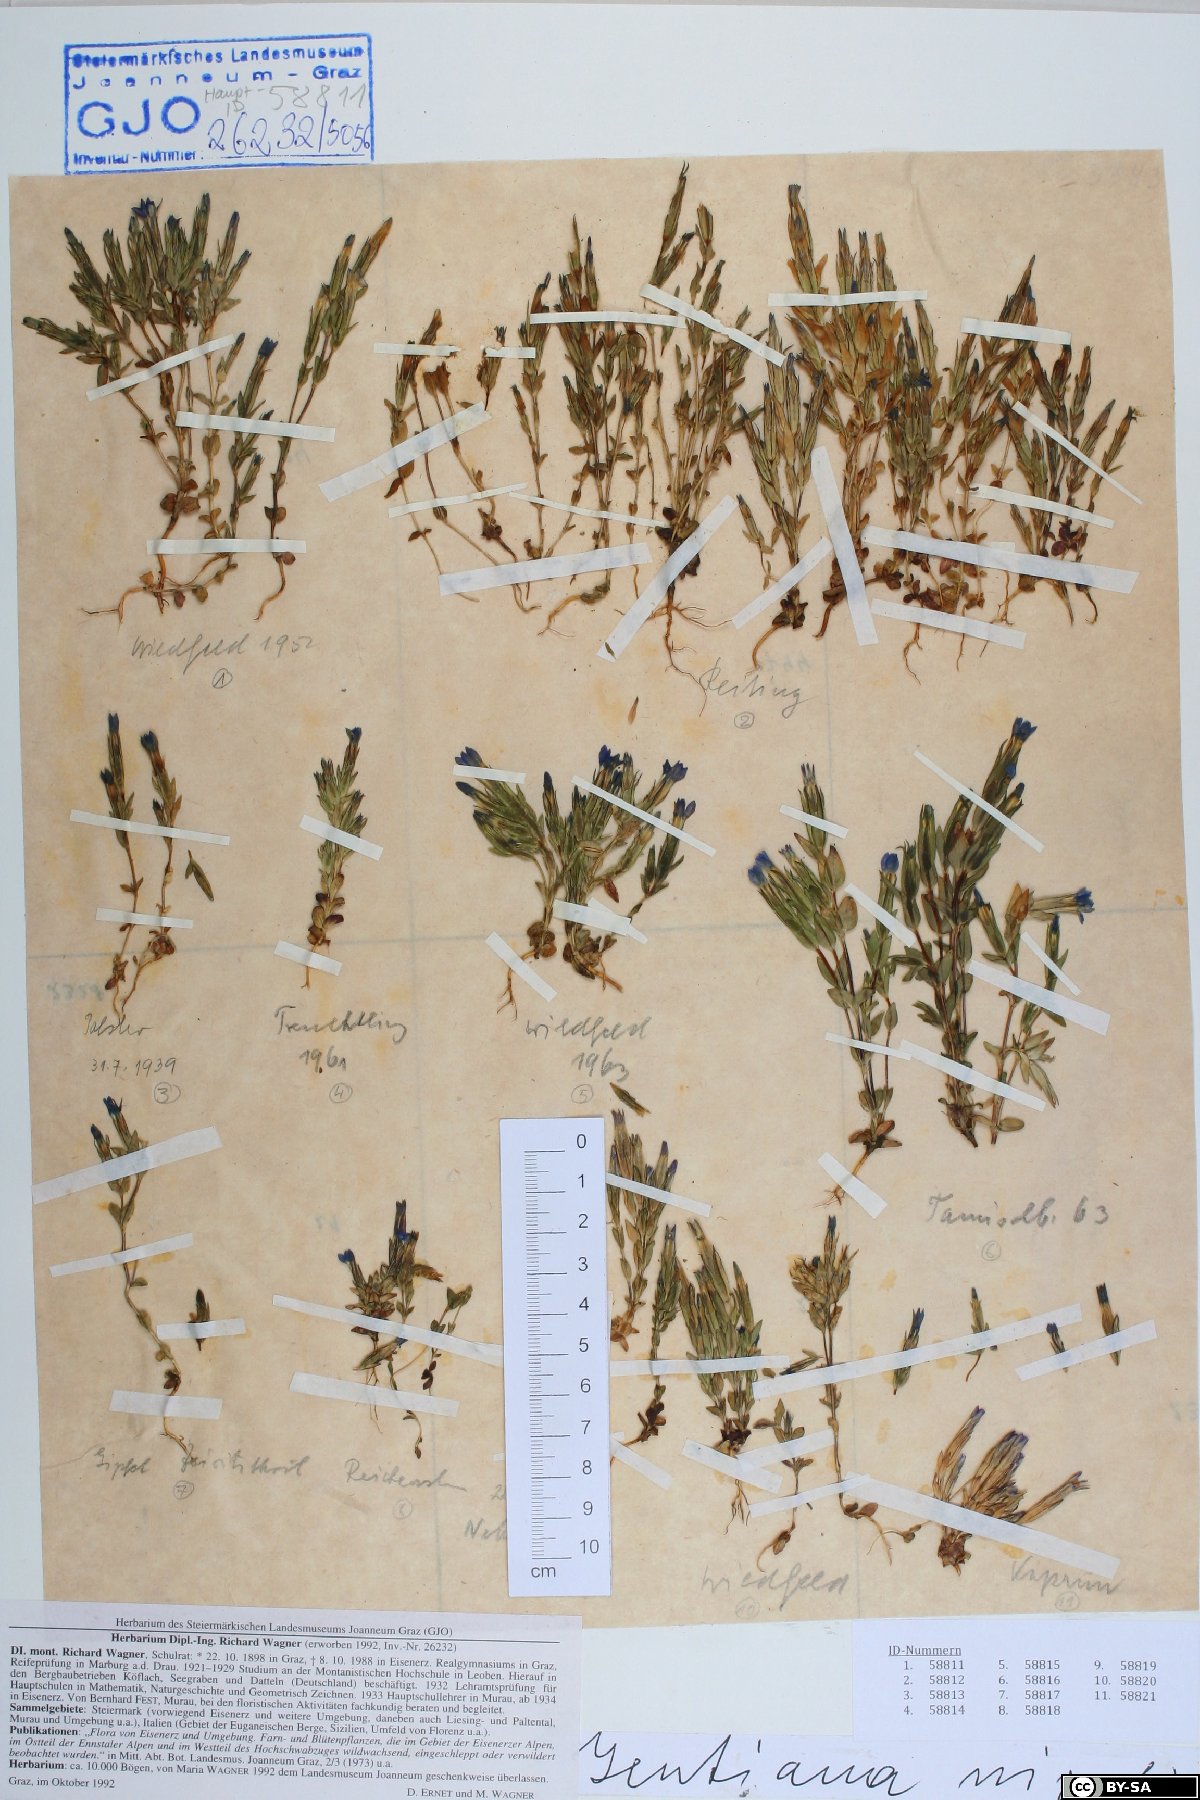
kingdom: Plantae
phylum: Tracheophyta
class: Magnoliopsida
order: Gentianales
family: Gentianaceae
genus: Gentiana
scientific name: Gentiana nivalis
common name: Alpine gentian
